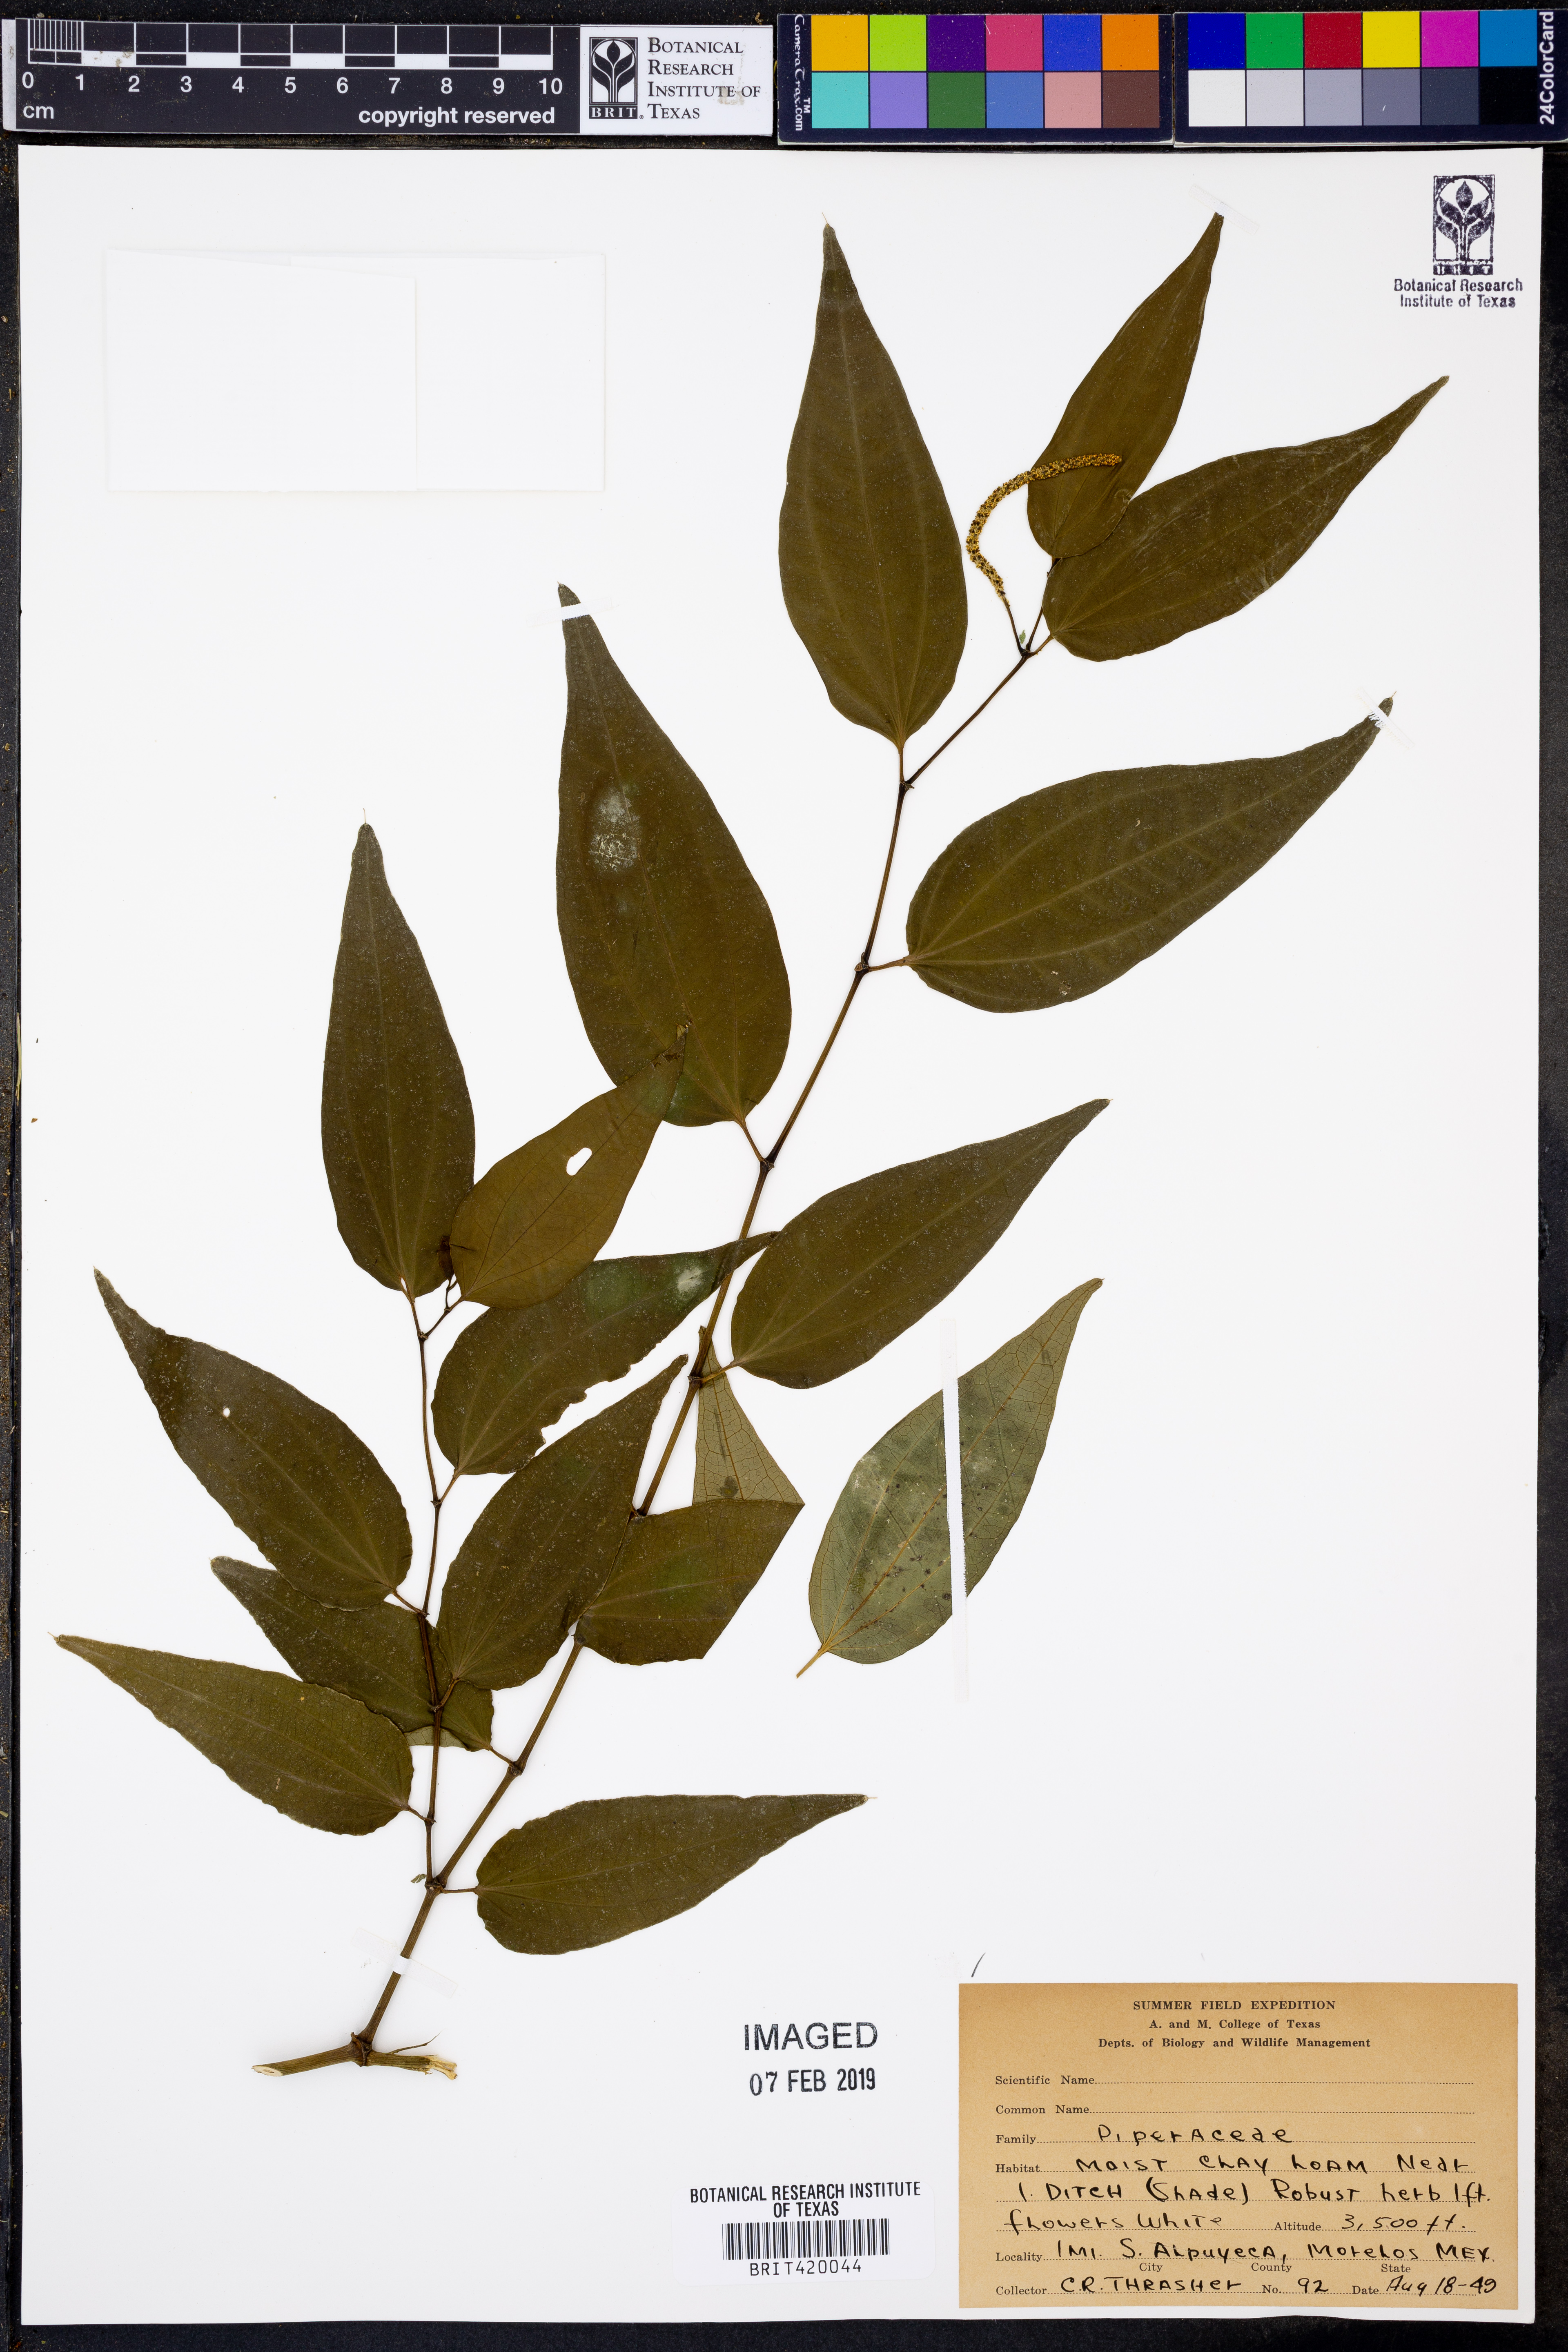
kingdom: Plantae
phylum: Tracheophyta
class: Magnoliopsida
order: Piperales
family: Piperaceae
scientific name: Piperaceae
